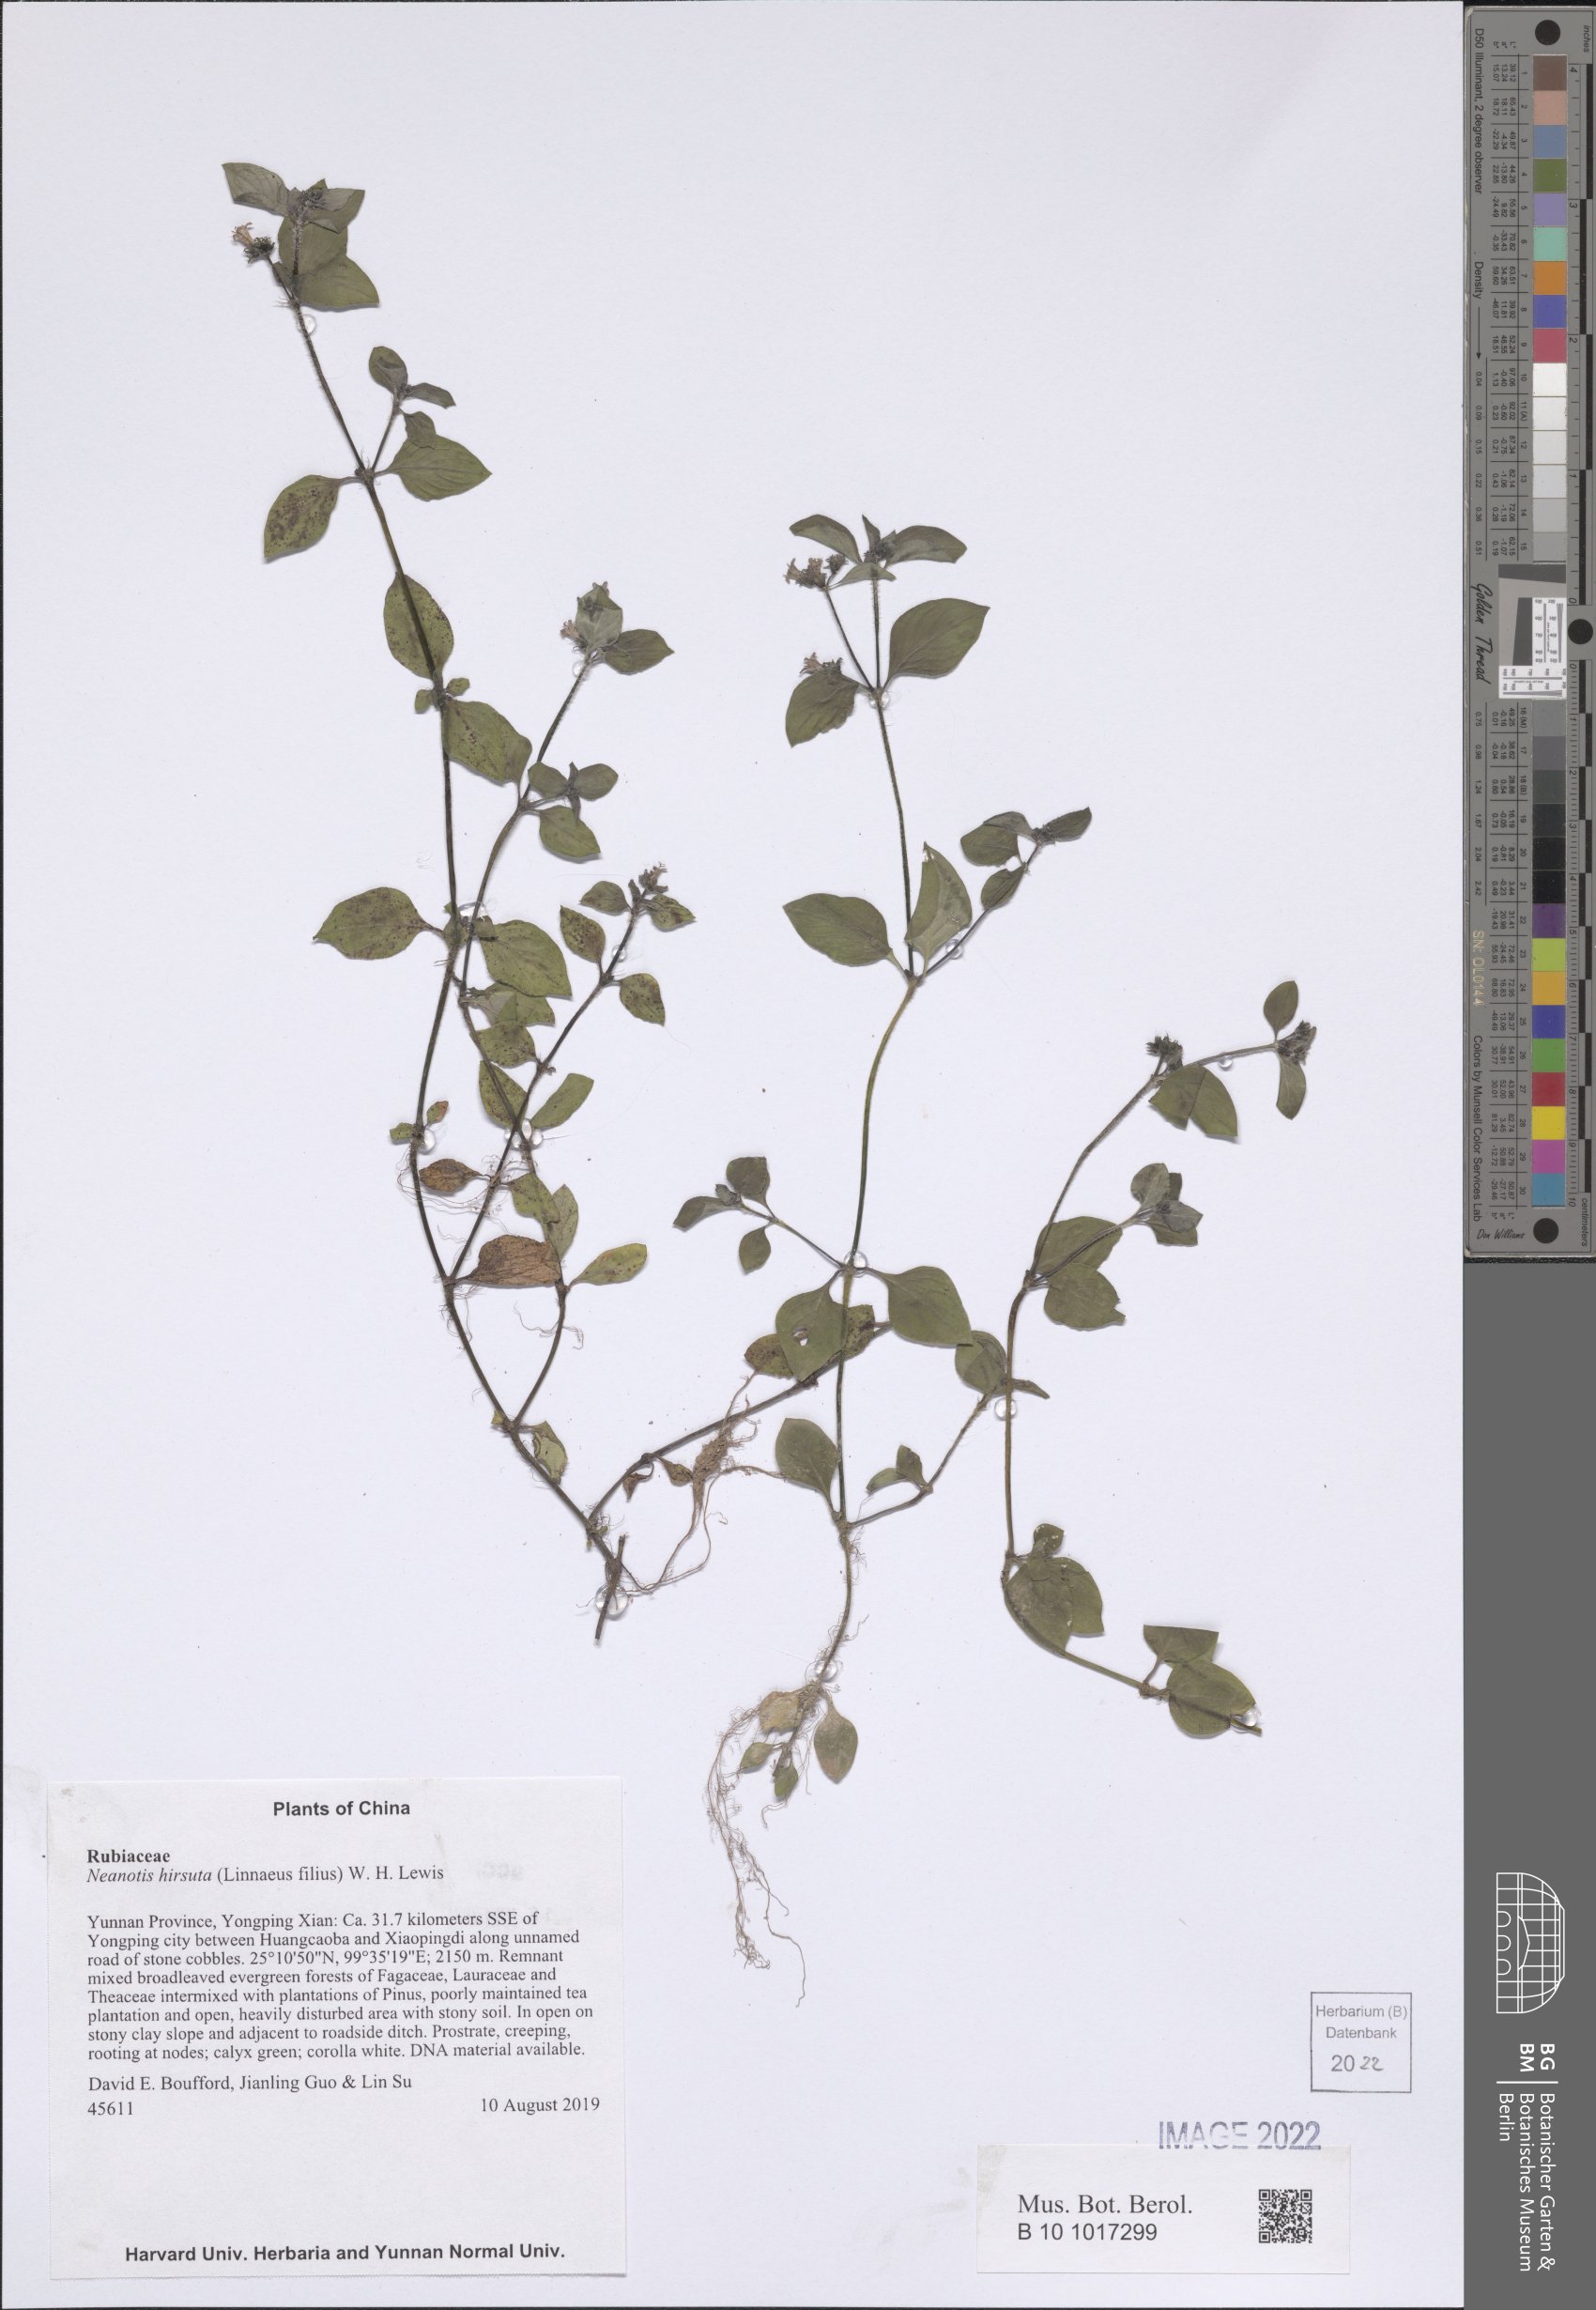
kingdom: Plantae
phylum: Tracheophyta
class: Magnoliopsida
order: Gentianales
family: Rubiaceae
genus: Neanotis
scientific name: Neanotis hirsuta
